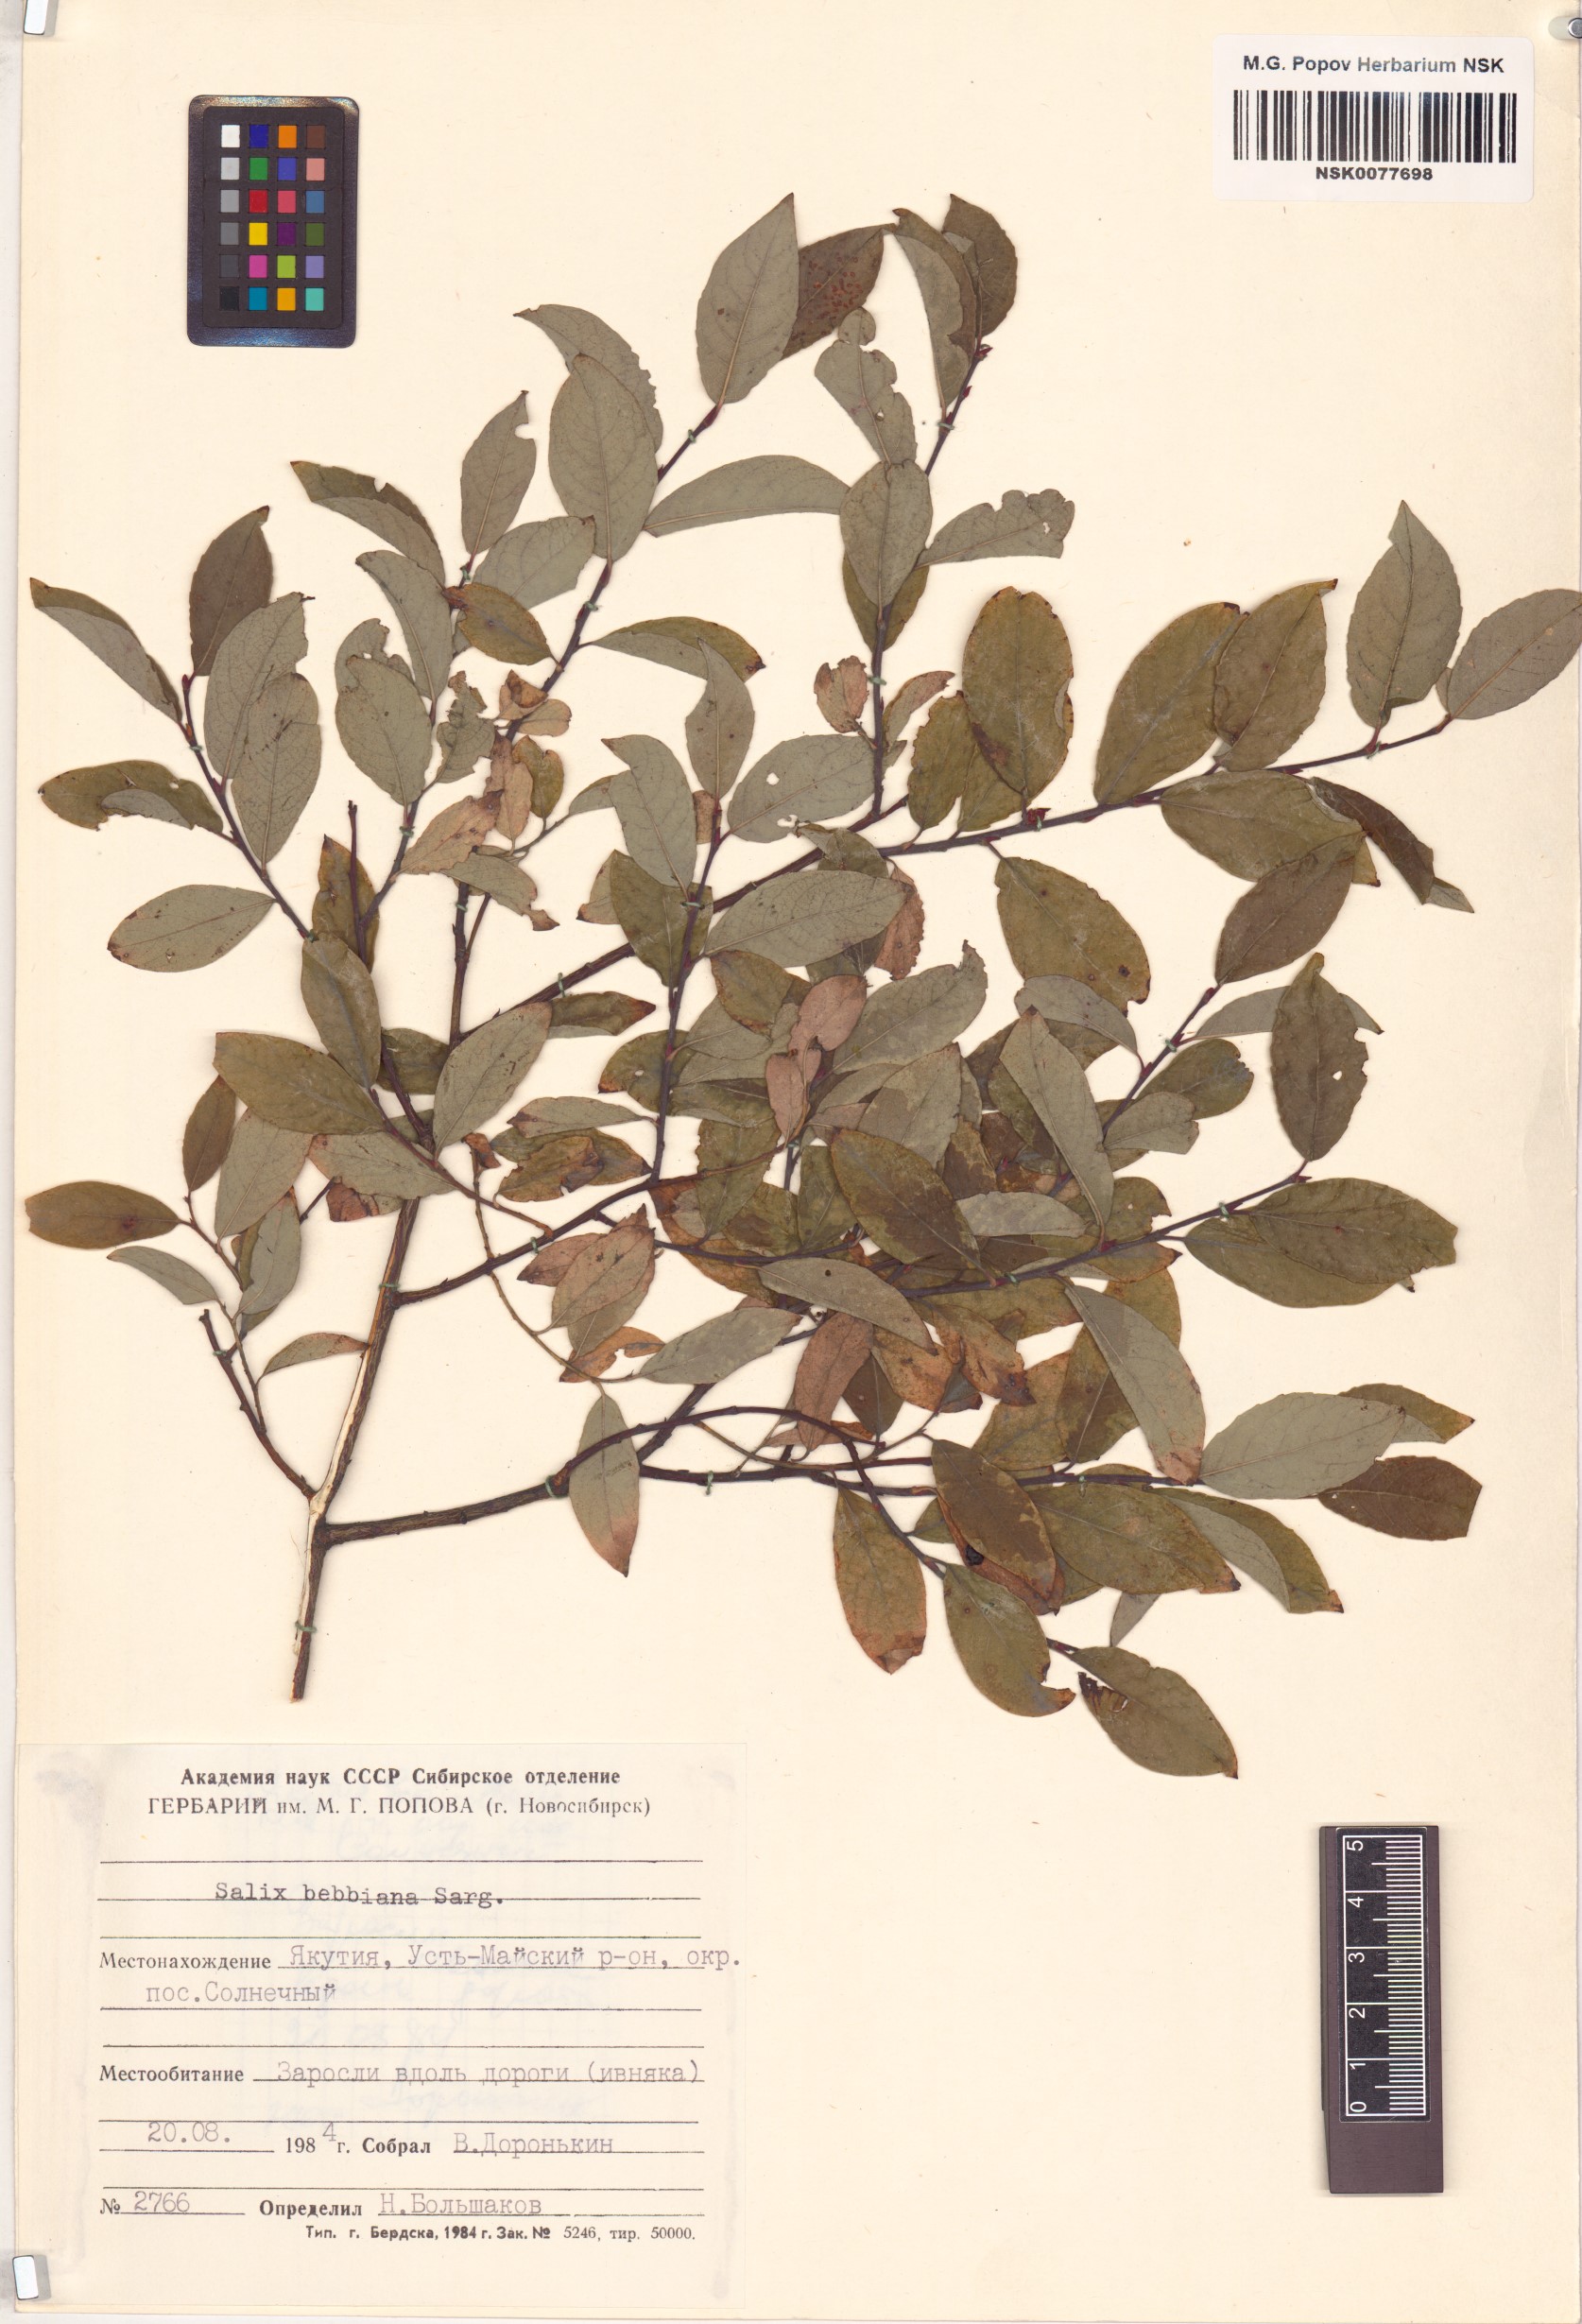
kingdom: Plantae
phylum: Tracheophyta
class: Magnoliopsida
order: Malpighiales
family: Salicaceae
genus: Salix
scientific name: Salix bebbiana
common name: Bebb's willow
